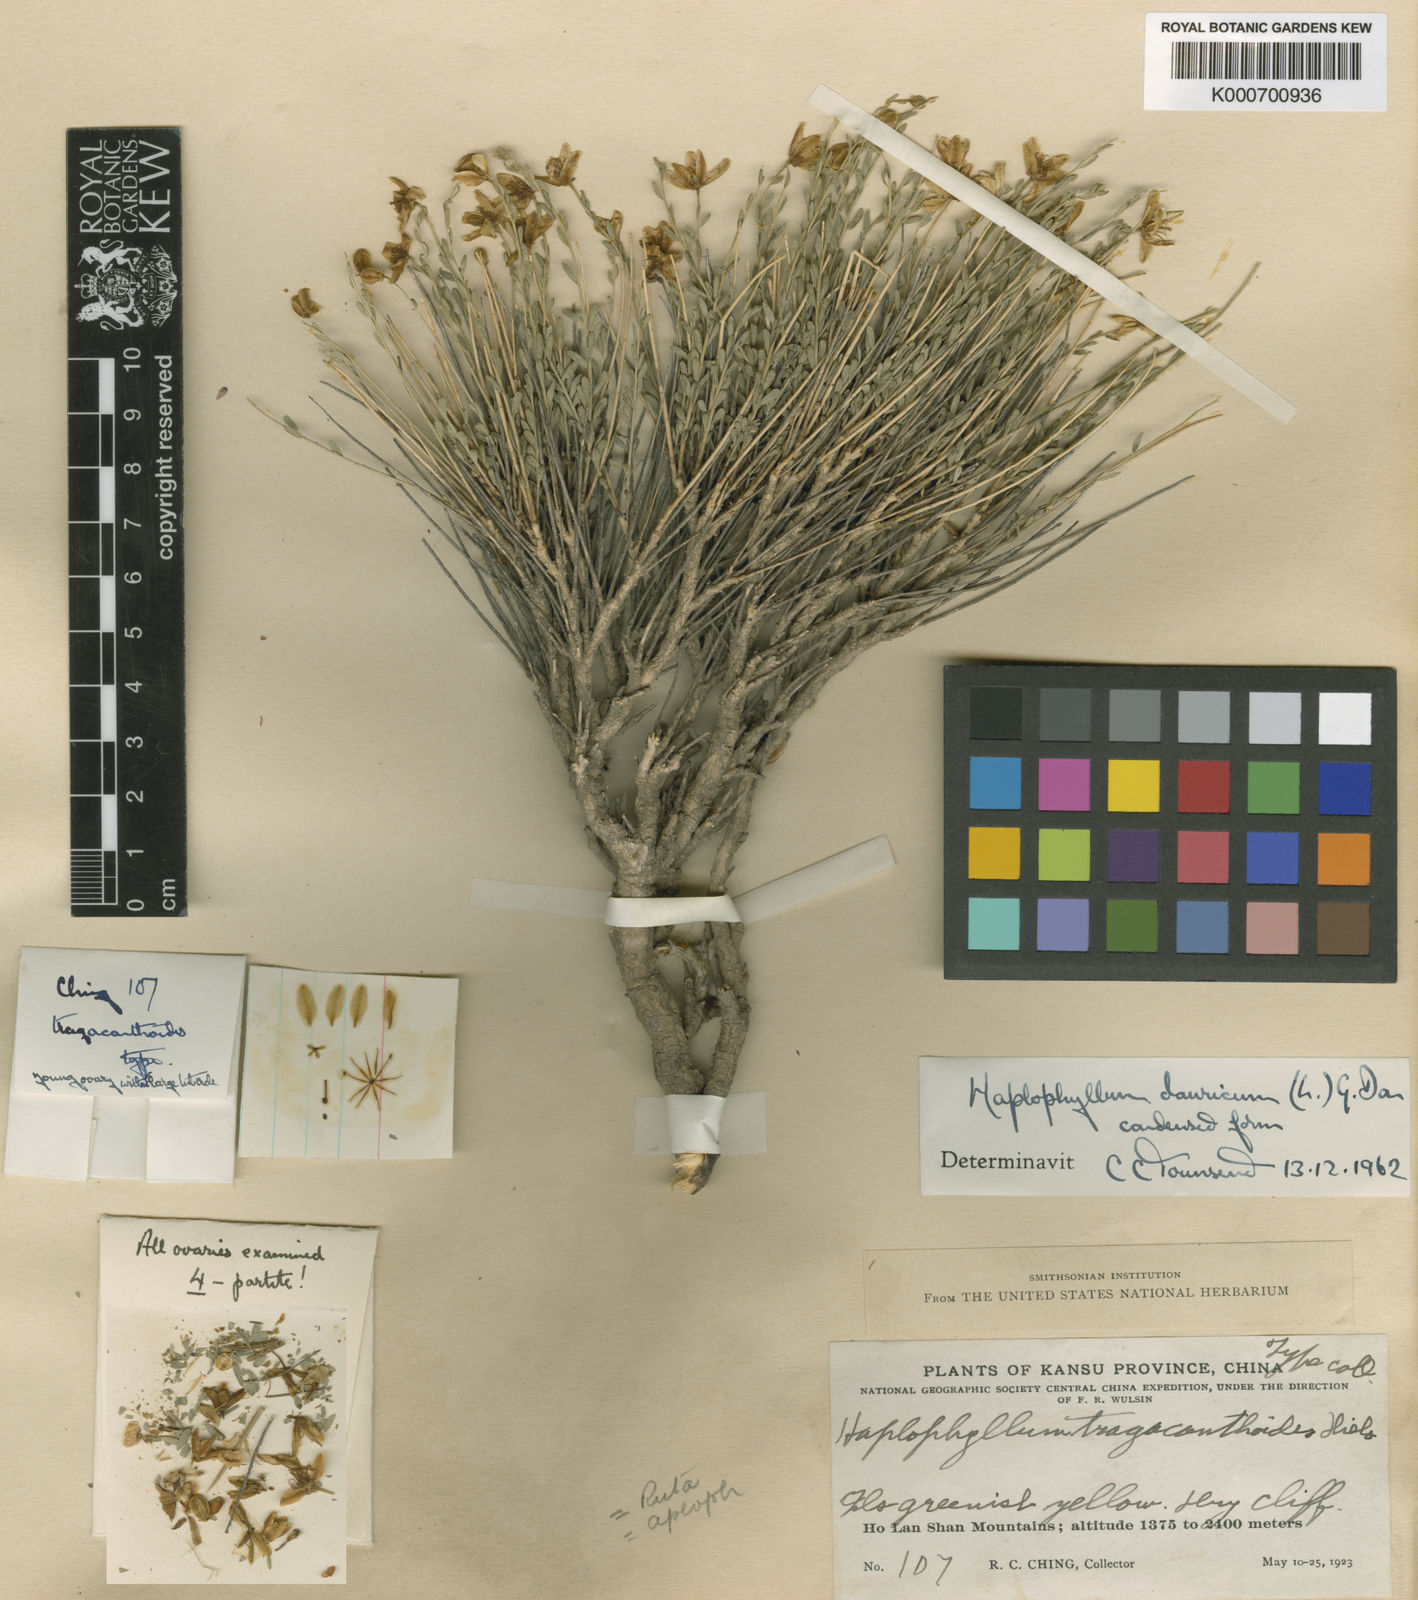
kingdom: Plantae
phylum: Tracheophyta
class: Magnoliopsida
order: Sapindales
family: Rutaceae
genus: Haplophyllum
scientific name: Haplophyllum
